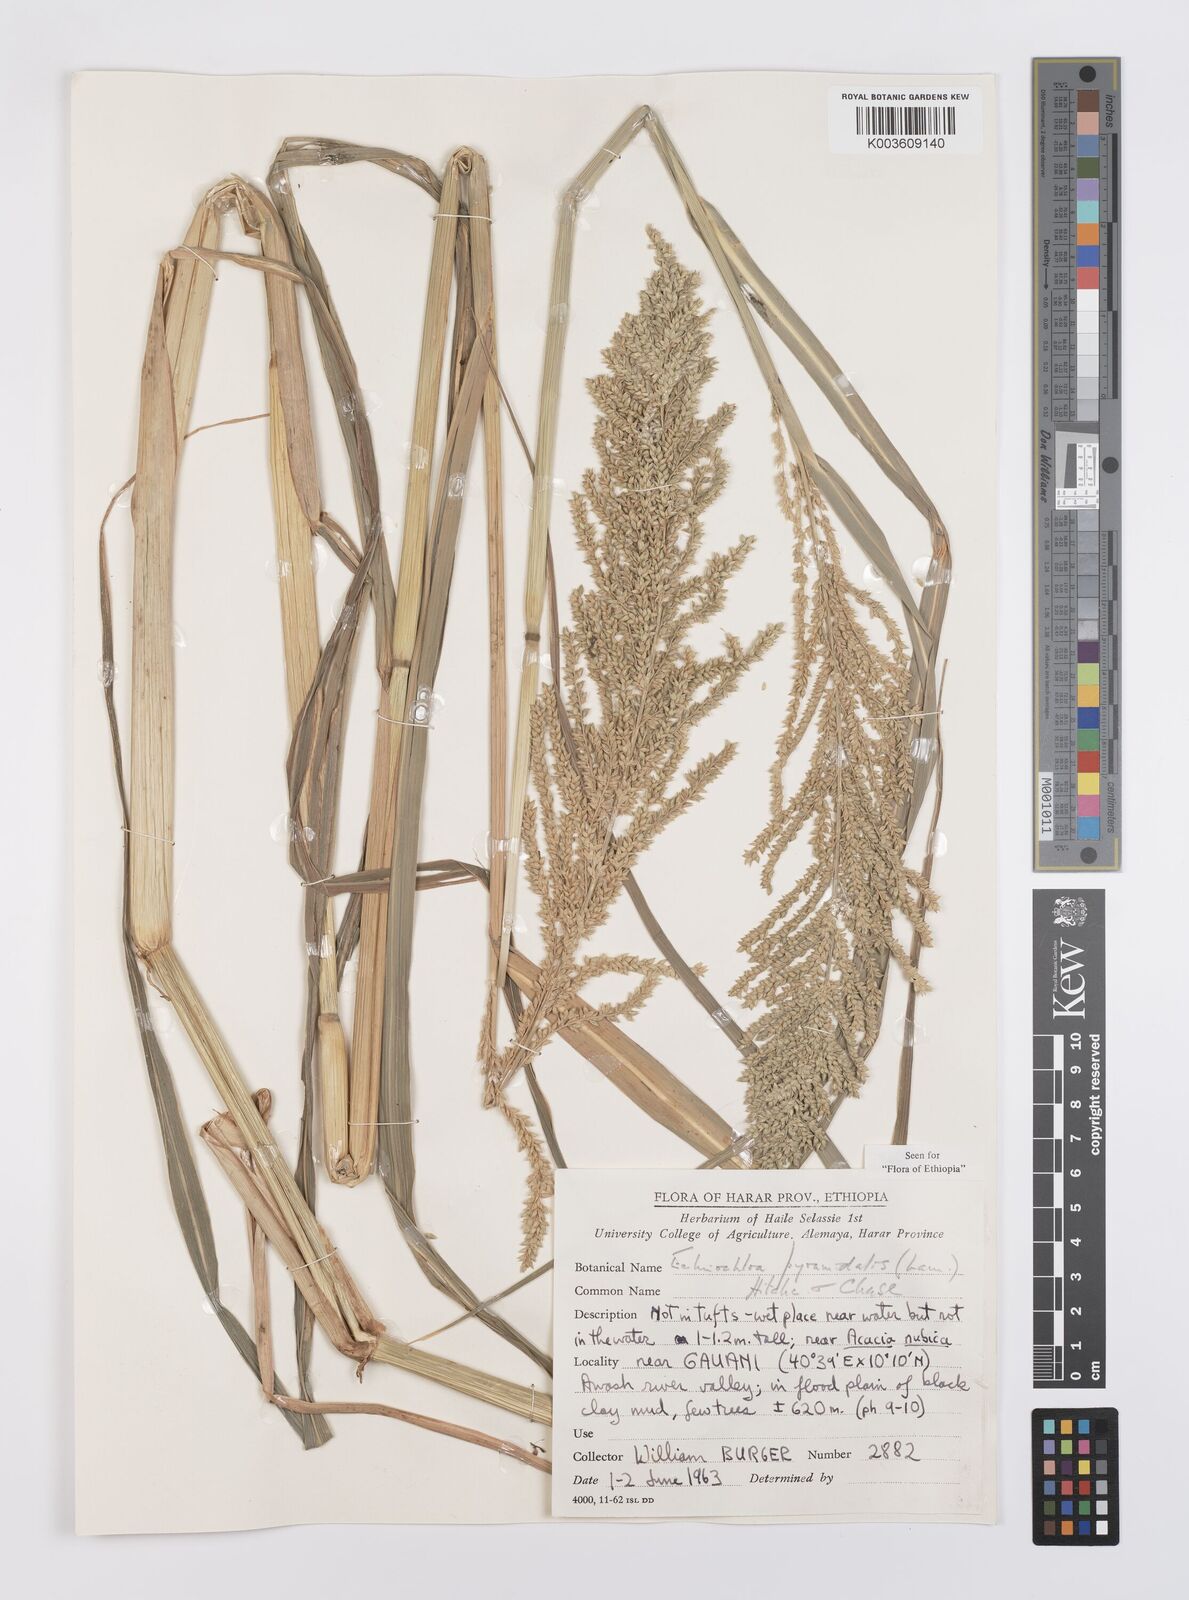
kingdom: Plantae
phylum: Tracheophyta
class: Liliopsida
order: Poales
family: Poaceae
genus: Echinochloa
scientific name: Echinochloa pyramidalis
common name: Antelope grass
